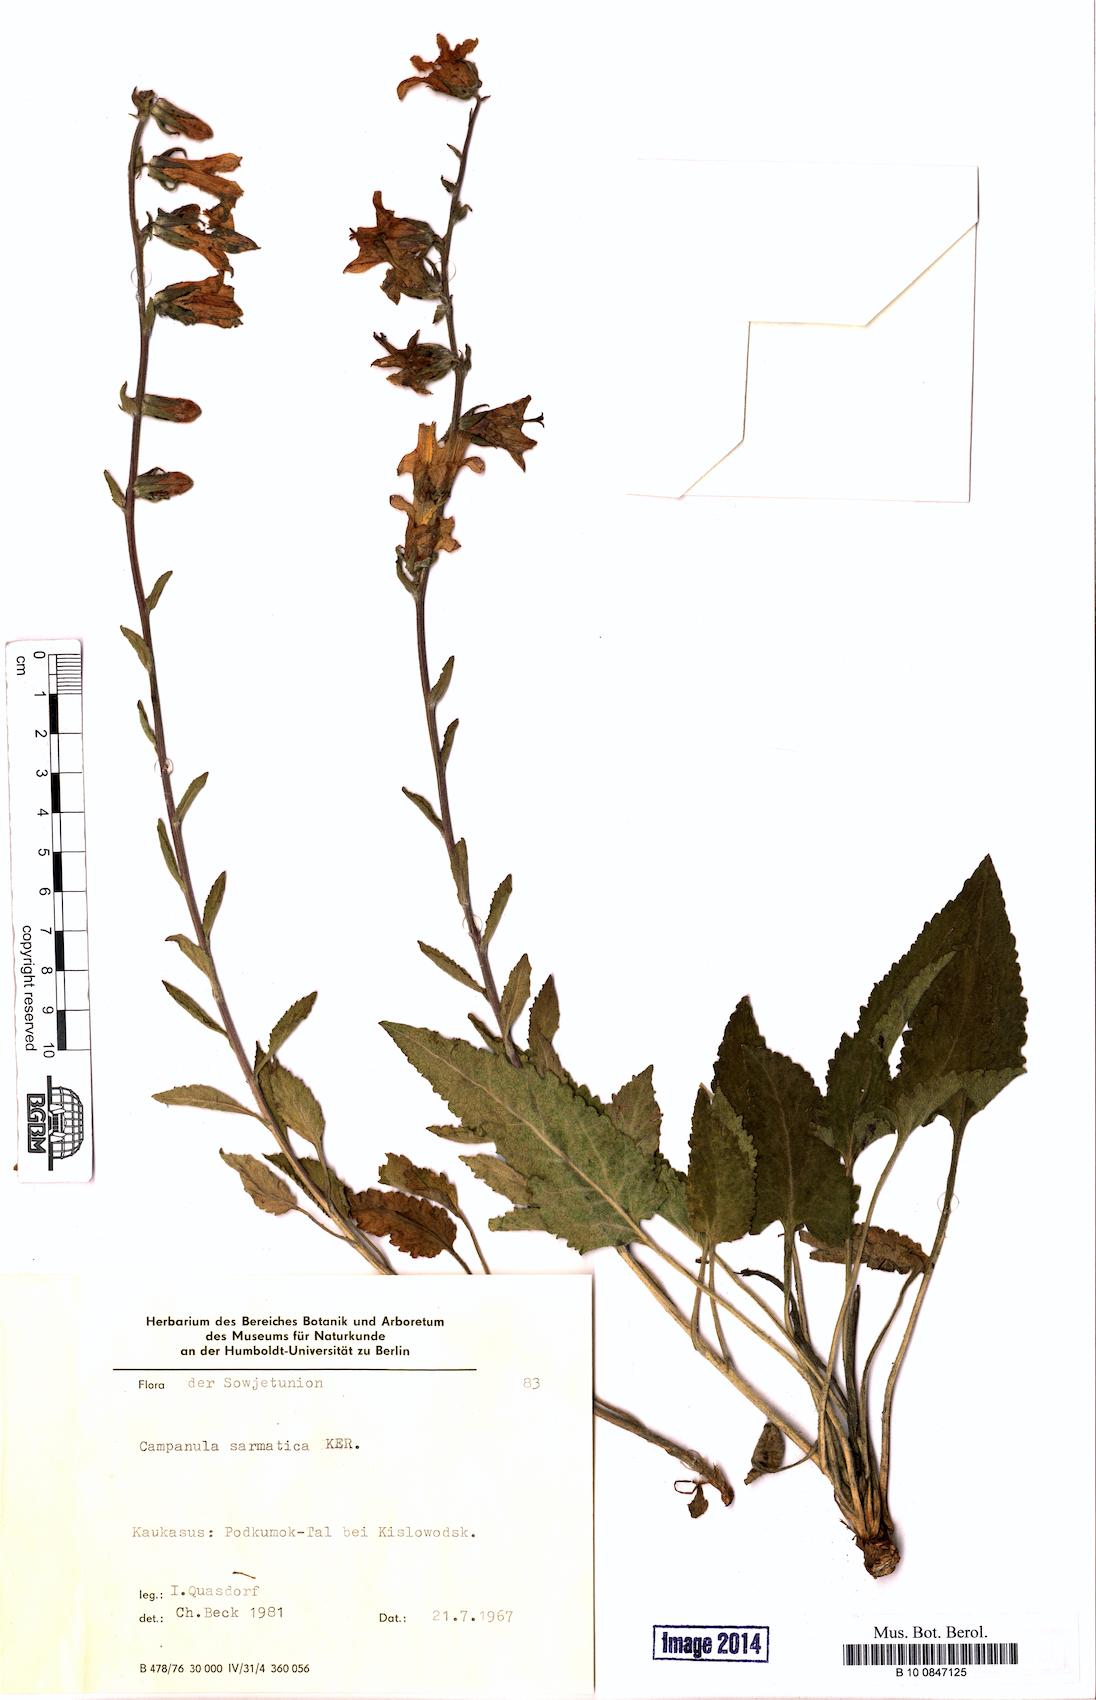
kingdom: Plantae
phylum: Tracheophyta
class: Magnoliopsida
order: Asterales
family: Campanulaceae
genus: Campanula
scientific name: Campanula sarmatica
